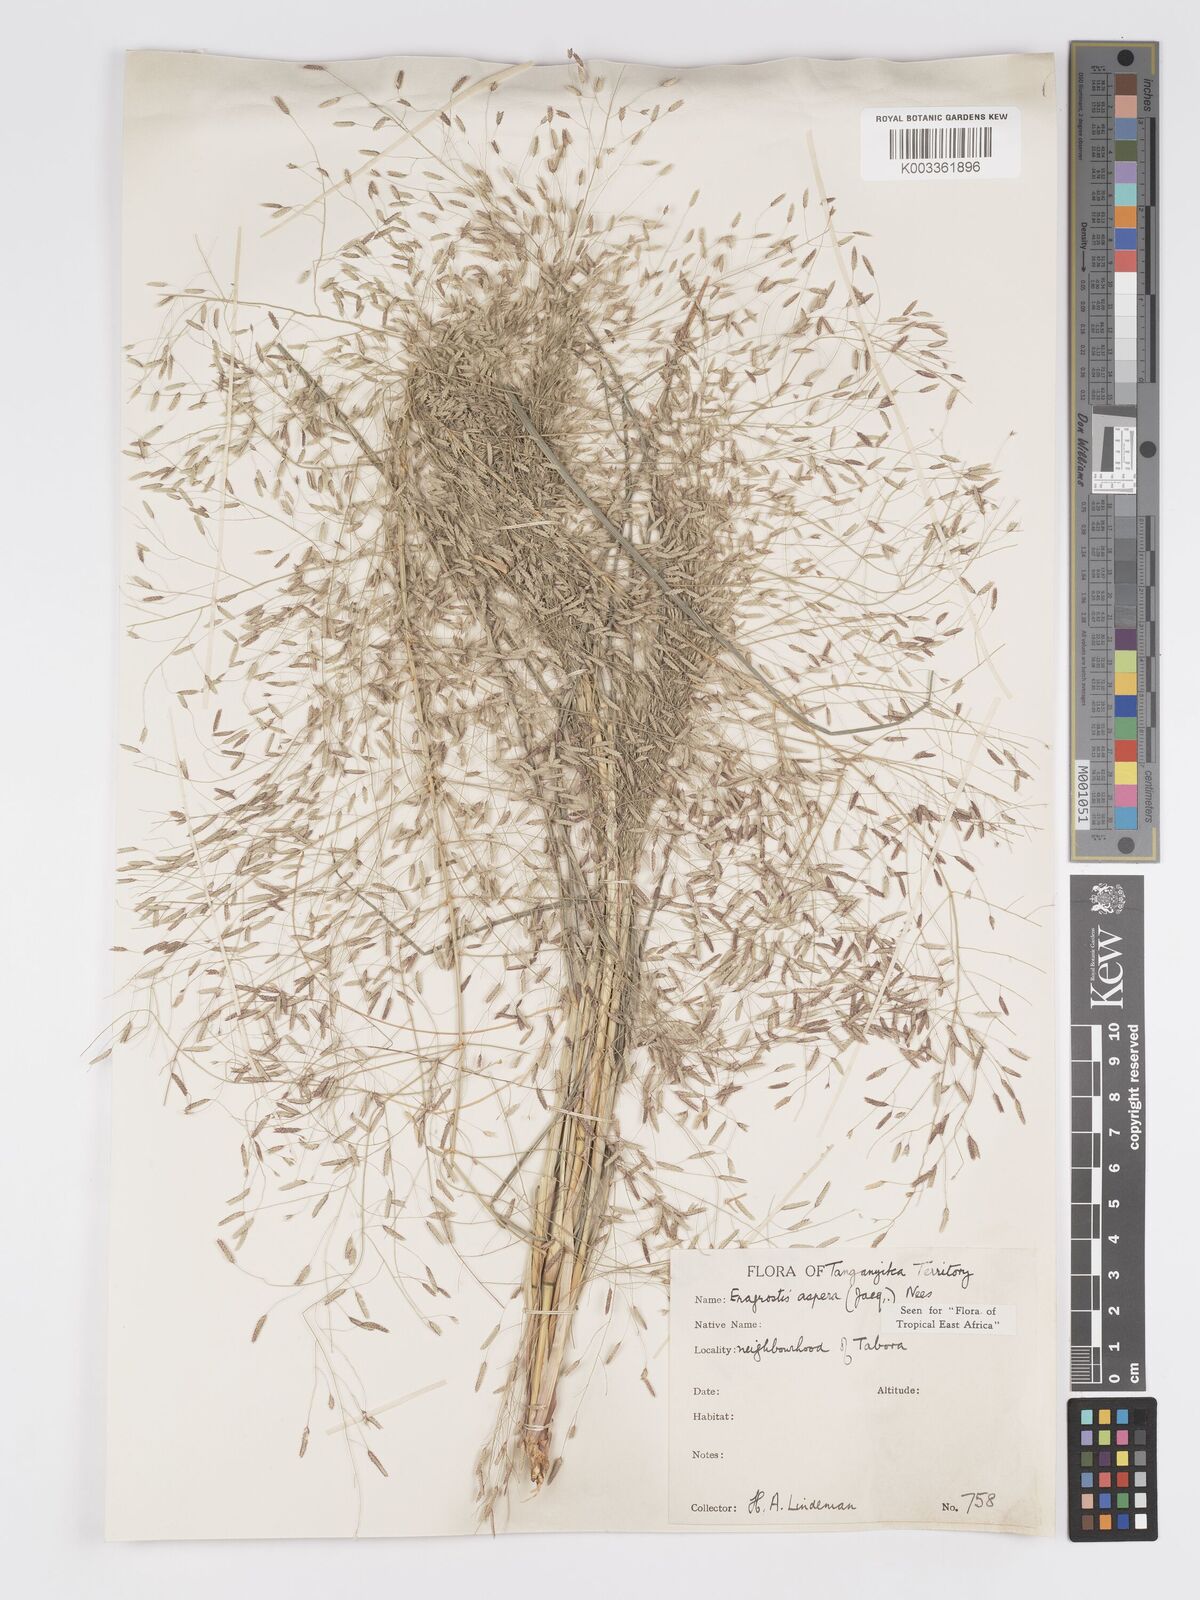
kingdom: Plantae
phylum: Tracheophyta
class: Liliopsida
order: Poales
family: Poaceae
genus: Eragrostis
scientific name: Eragrostis aspera
